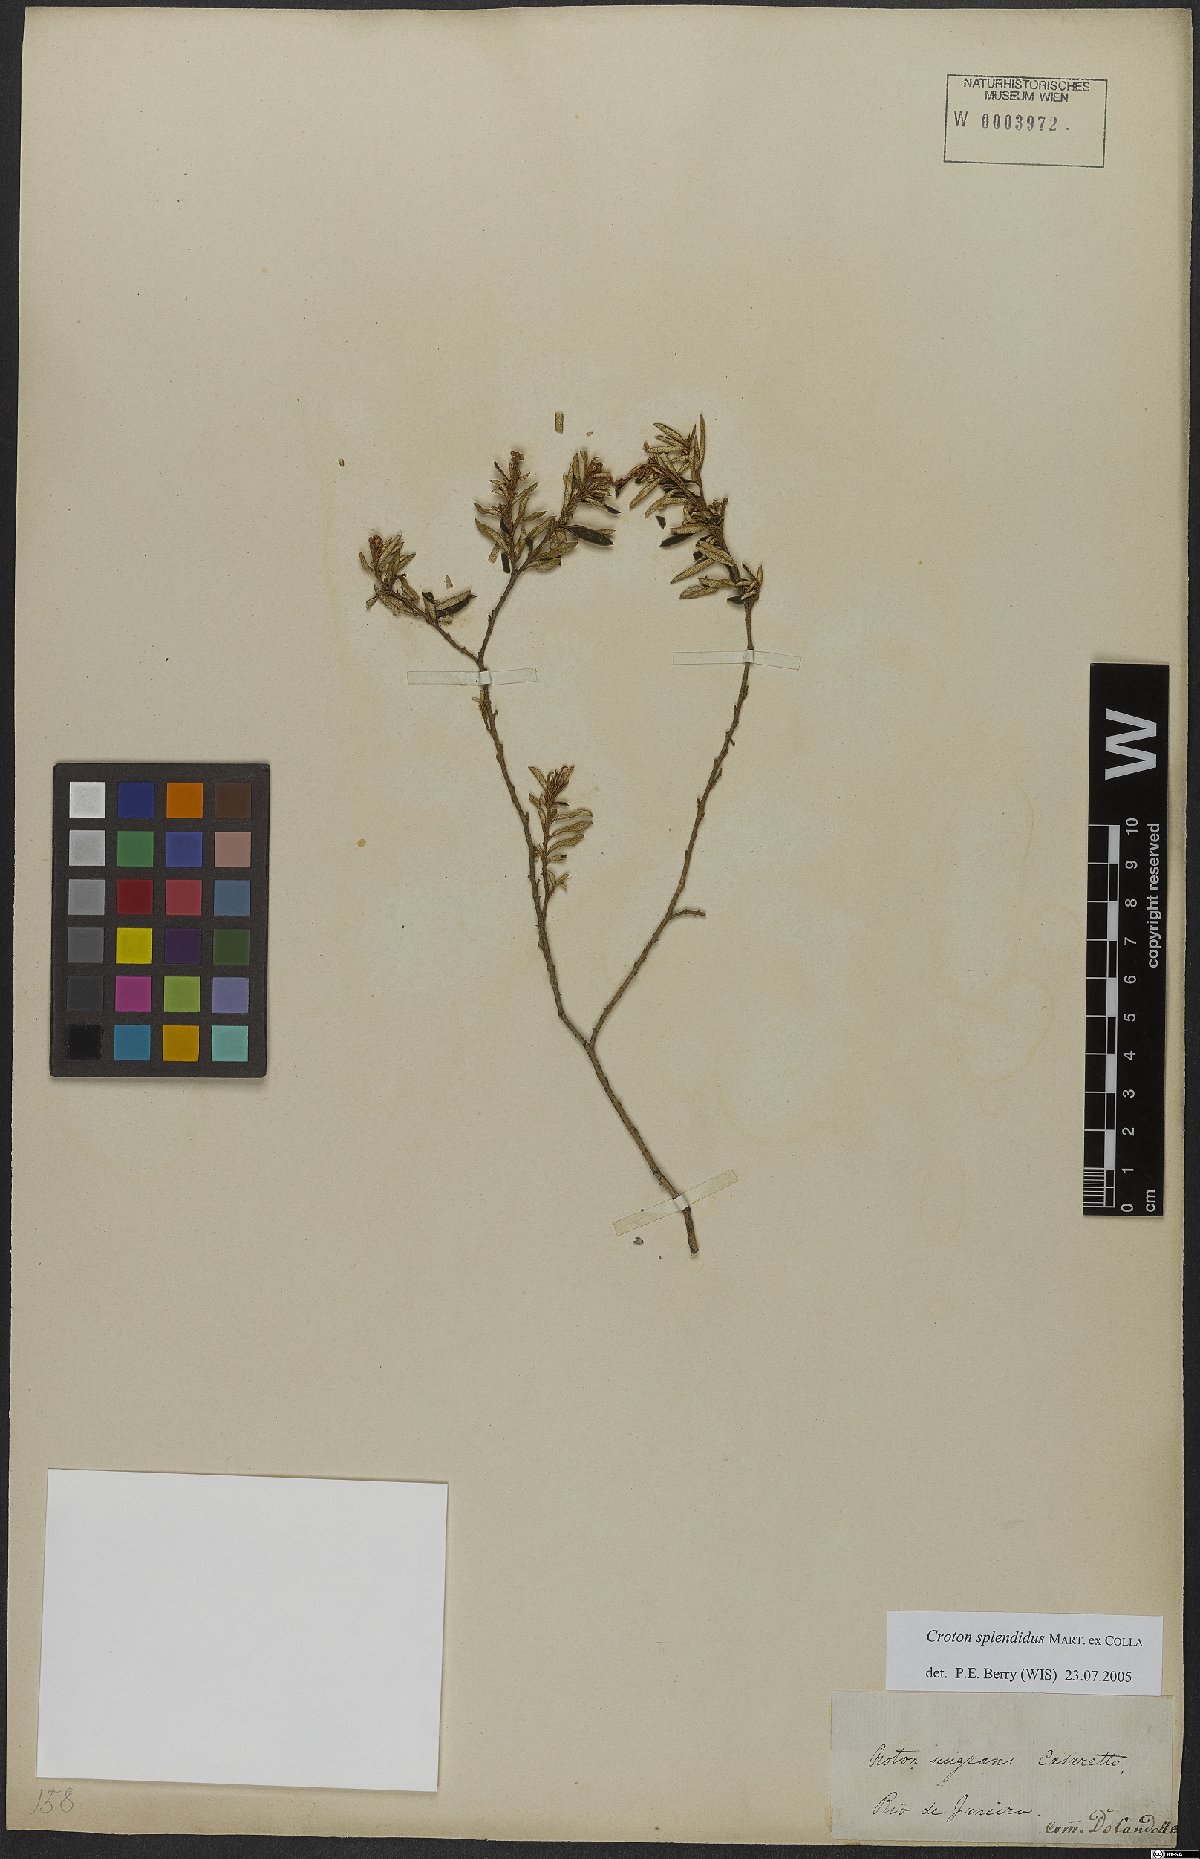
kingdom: Plantae
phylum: Tracheophyta
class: Magnoliopsida
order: Malpighiales
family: Euphorbiaceae
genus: Croton
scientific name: Croton splendidus
